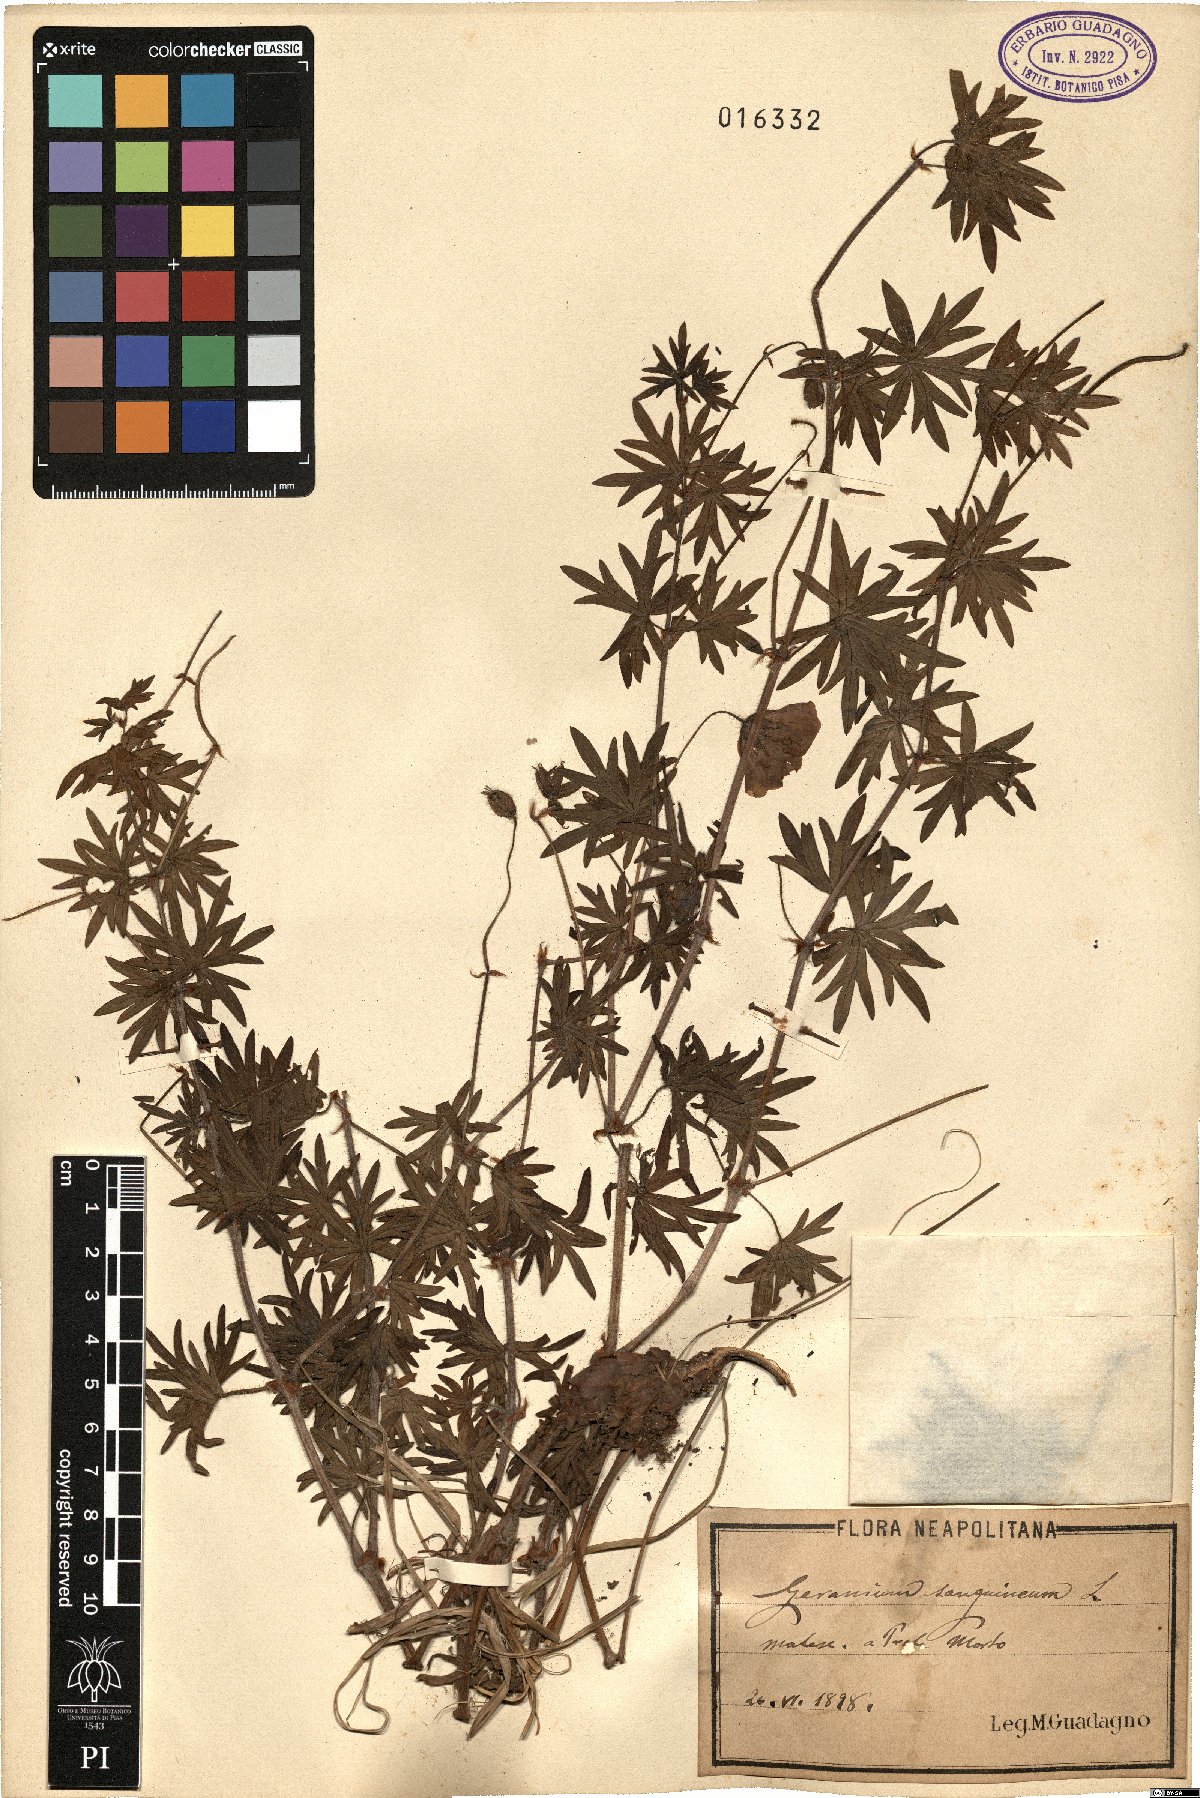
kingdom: Plantae
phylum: Tracheophyta
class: Magnoliopsida
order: Geraniales
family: Geraniaceae
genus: Geranium
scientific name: Geranium sanguineum
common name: Bloody crane's-bill
